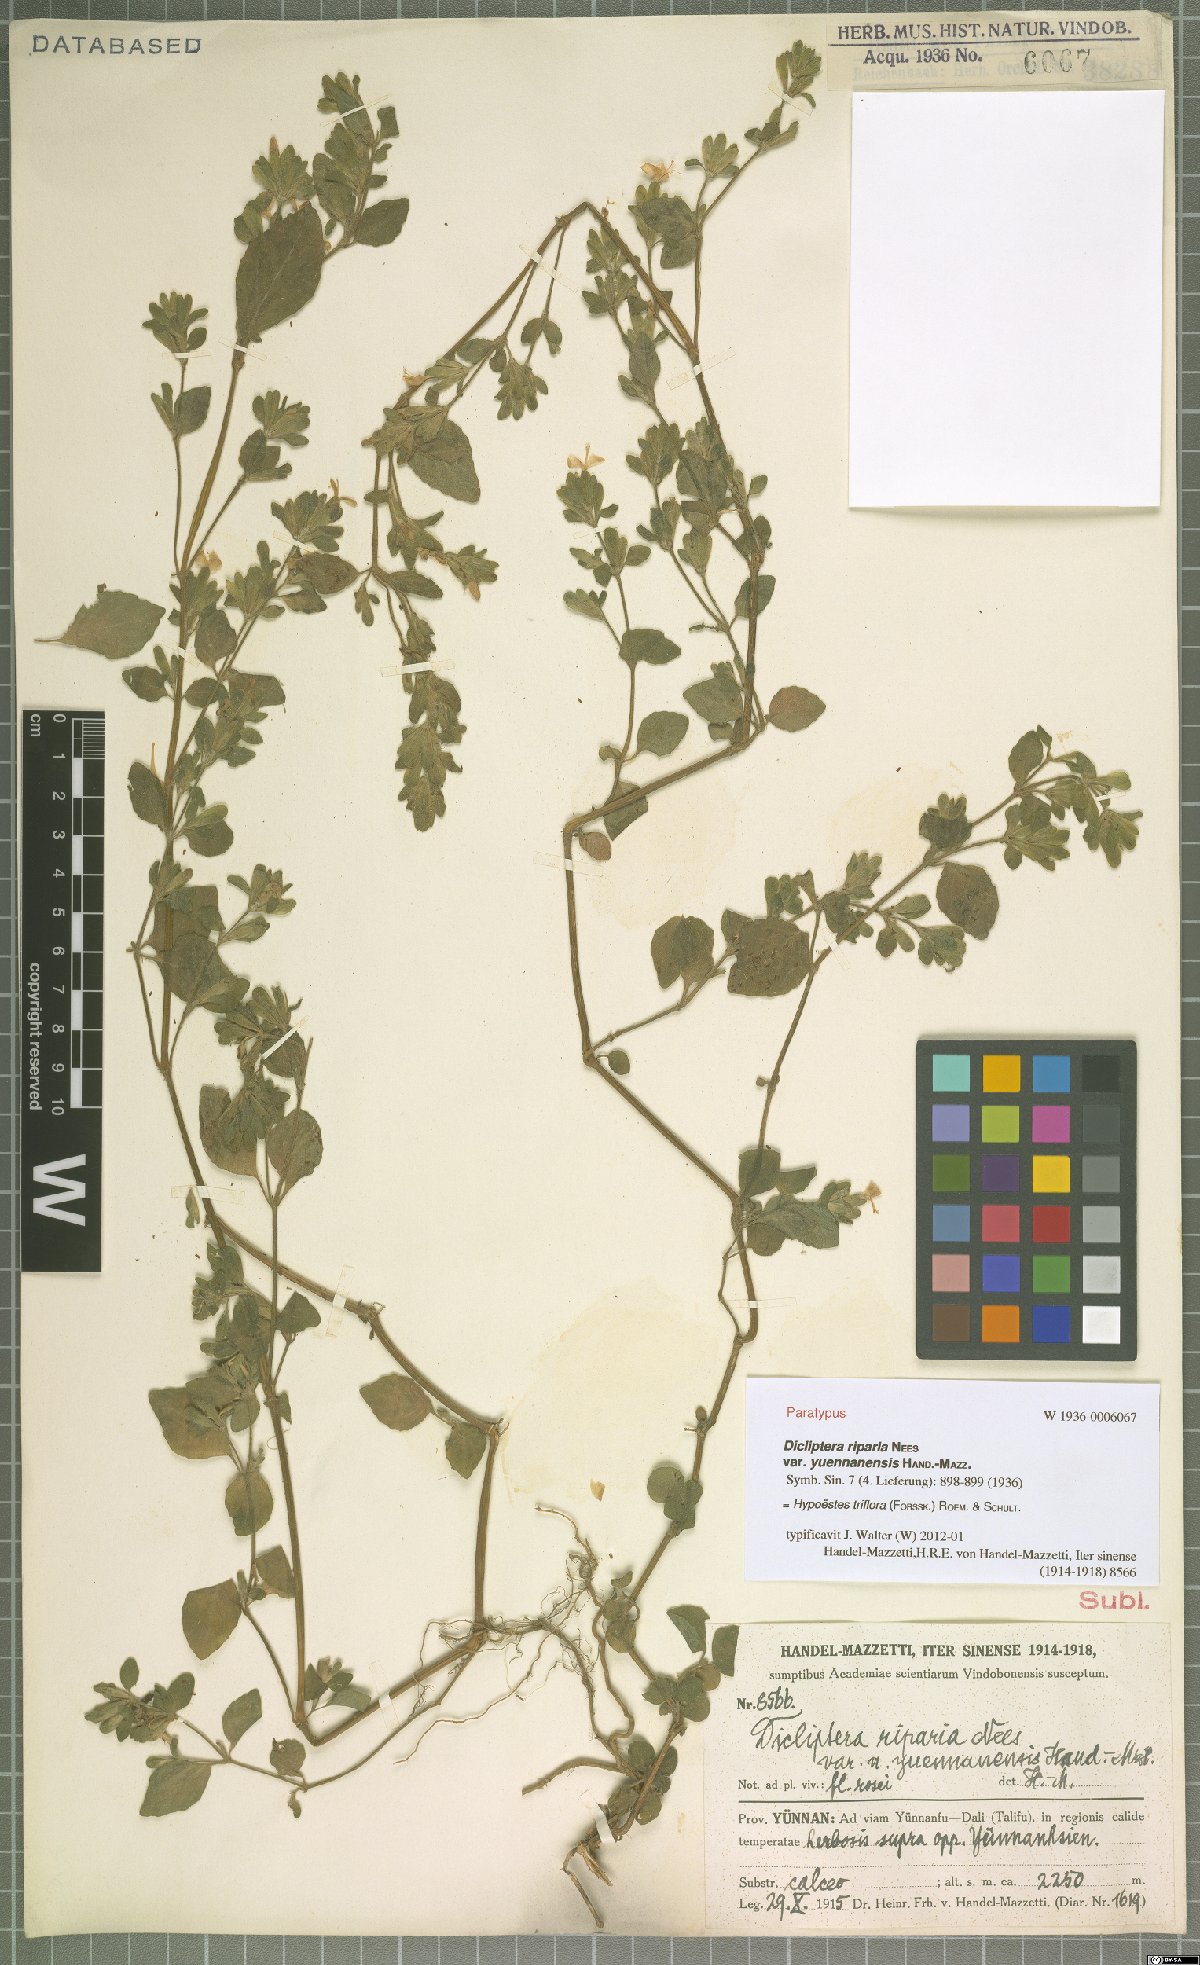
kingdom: Plantae
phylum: Tracheophyta
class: Magnoliopsida
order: Lamiales
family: Acanthaceae
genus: Hypoestes
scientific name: Hypoestes triflora
